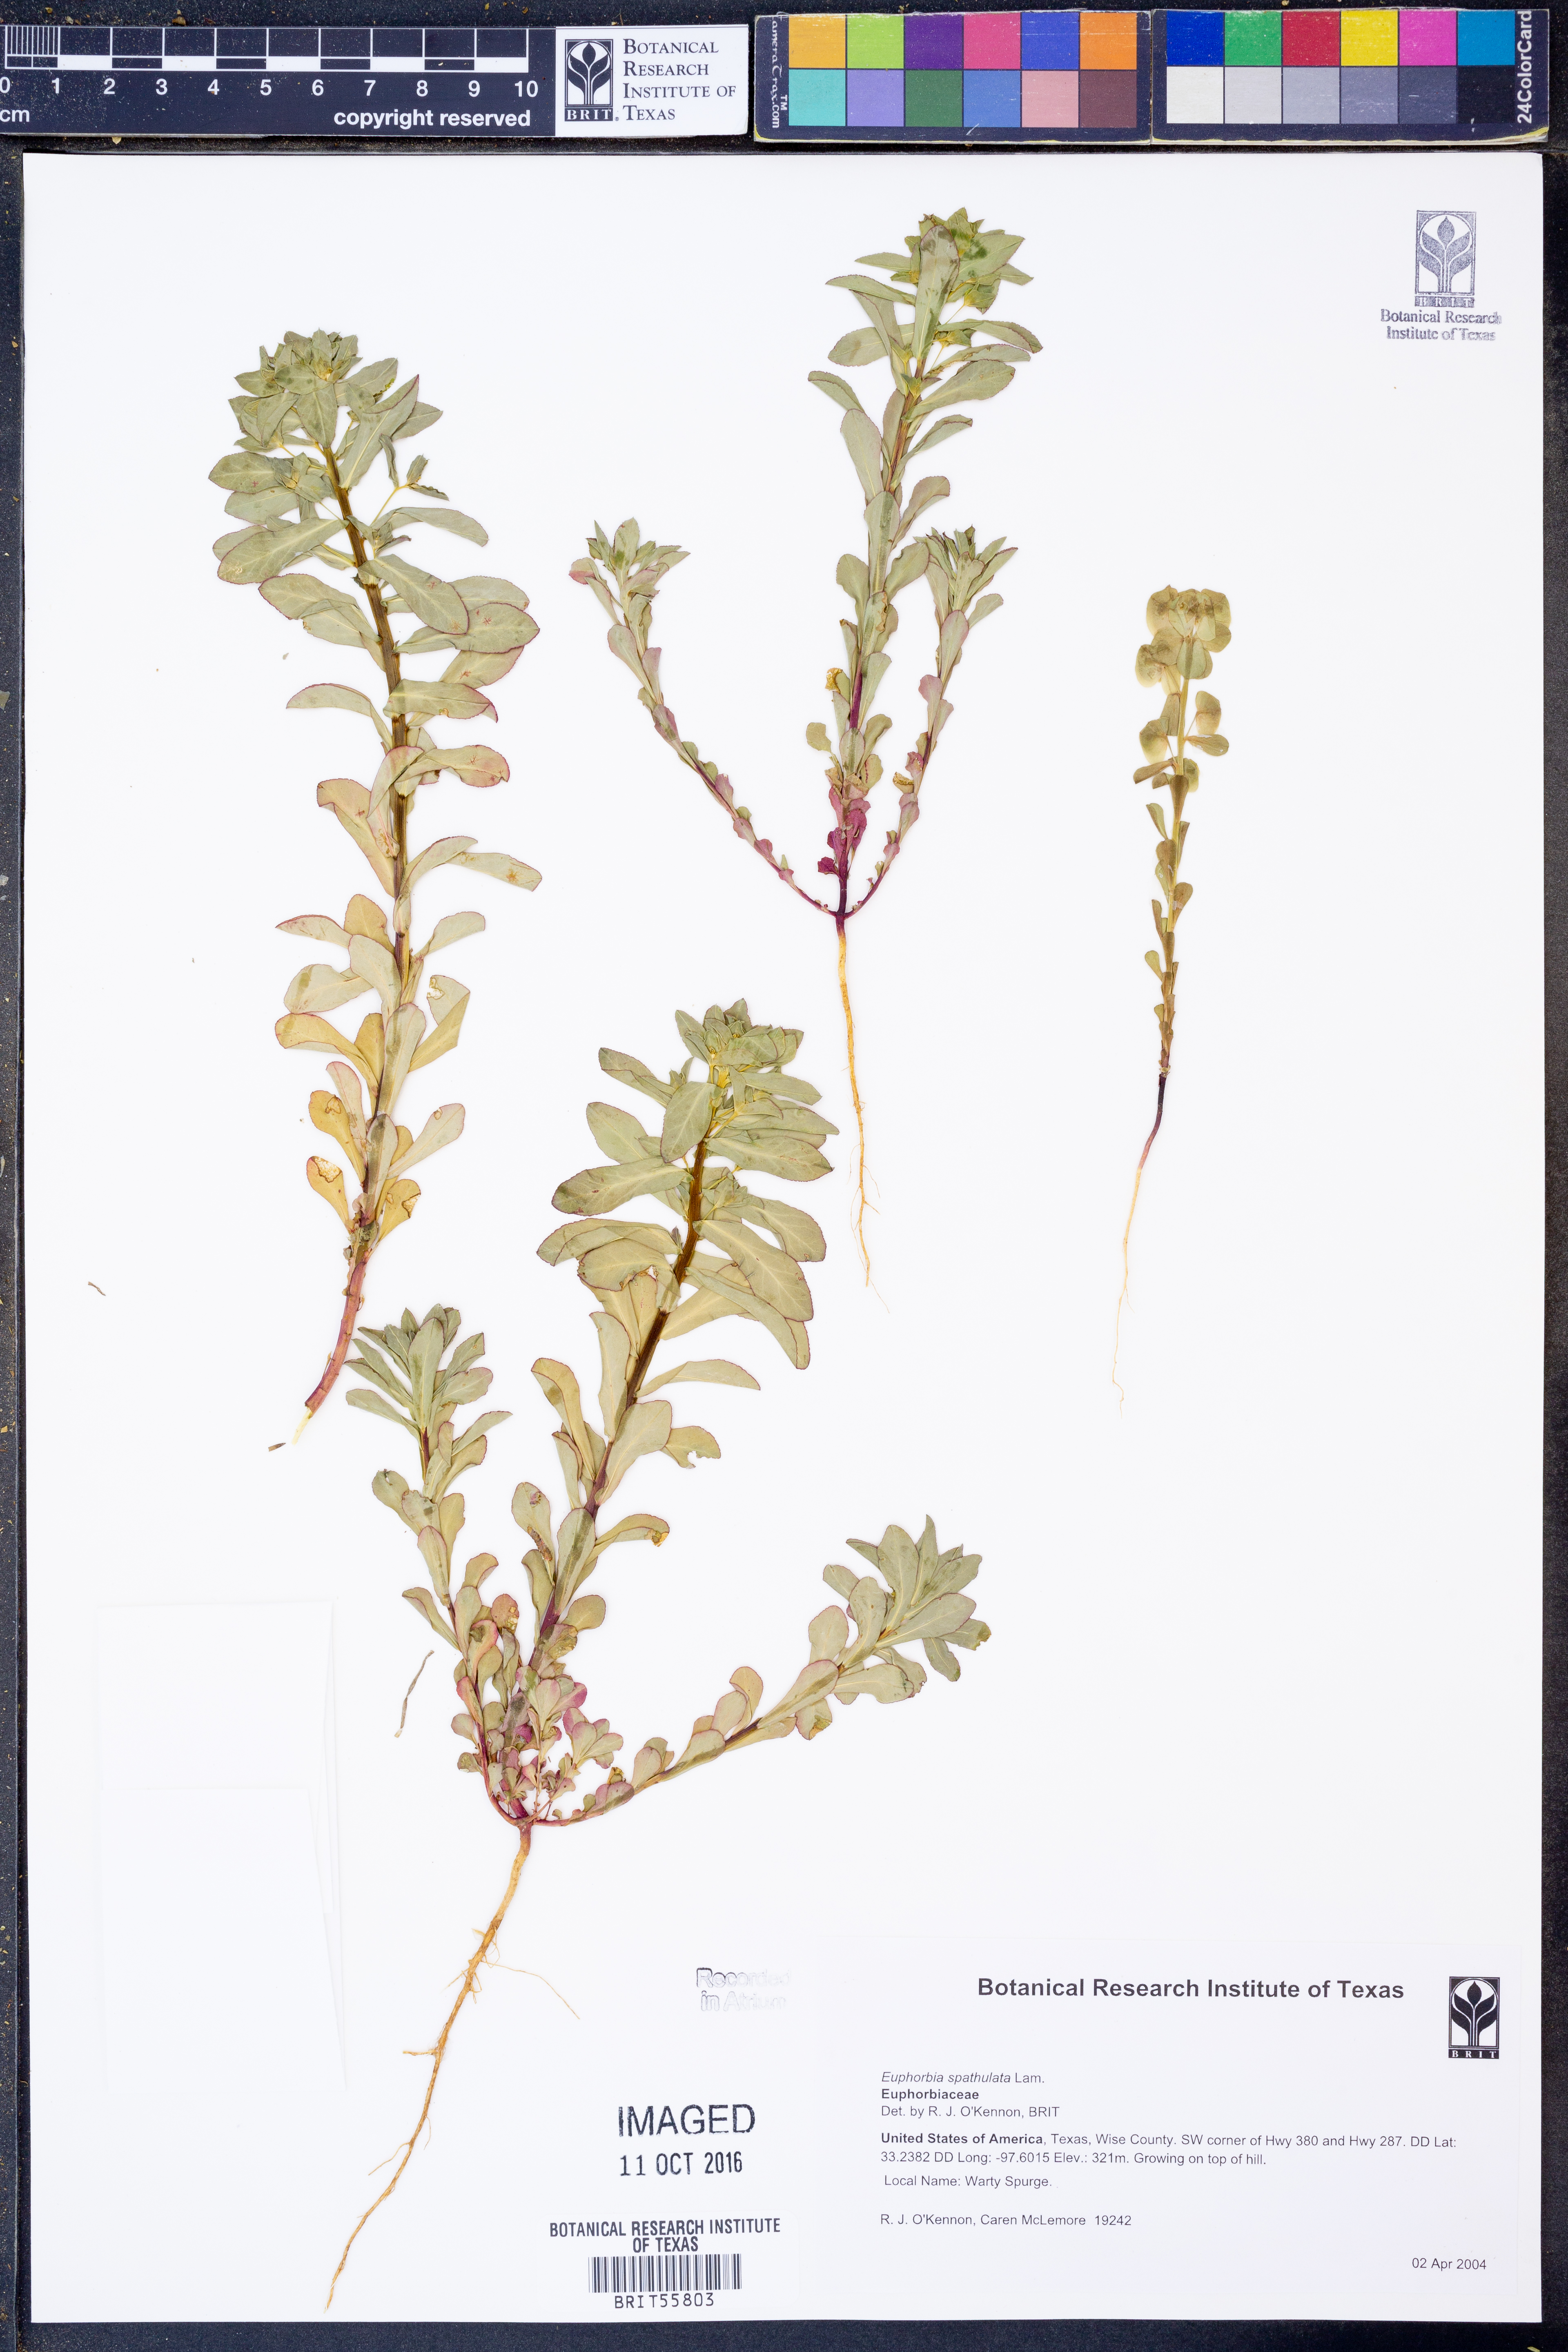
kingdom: Plantae
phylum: Tracheophyta
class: Magnoliopsida
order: Malpighiales
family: Euphorbiaceae
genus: Euphorbia
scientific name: Euphorbia spathulata
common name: Blunt spurge
